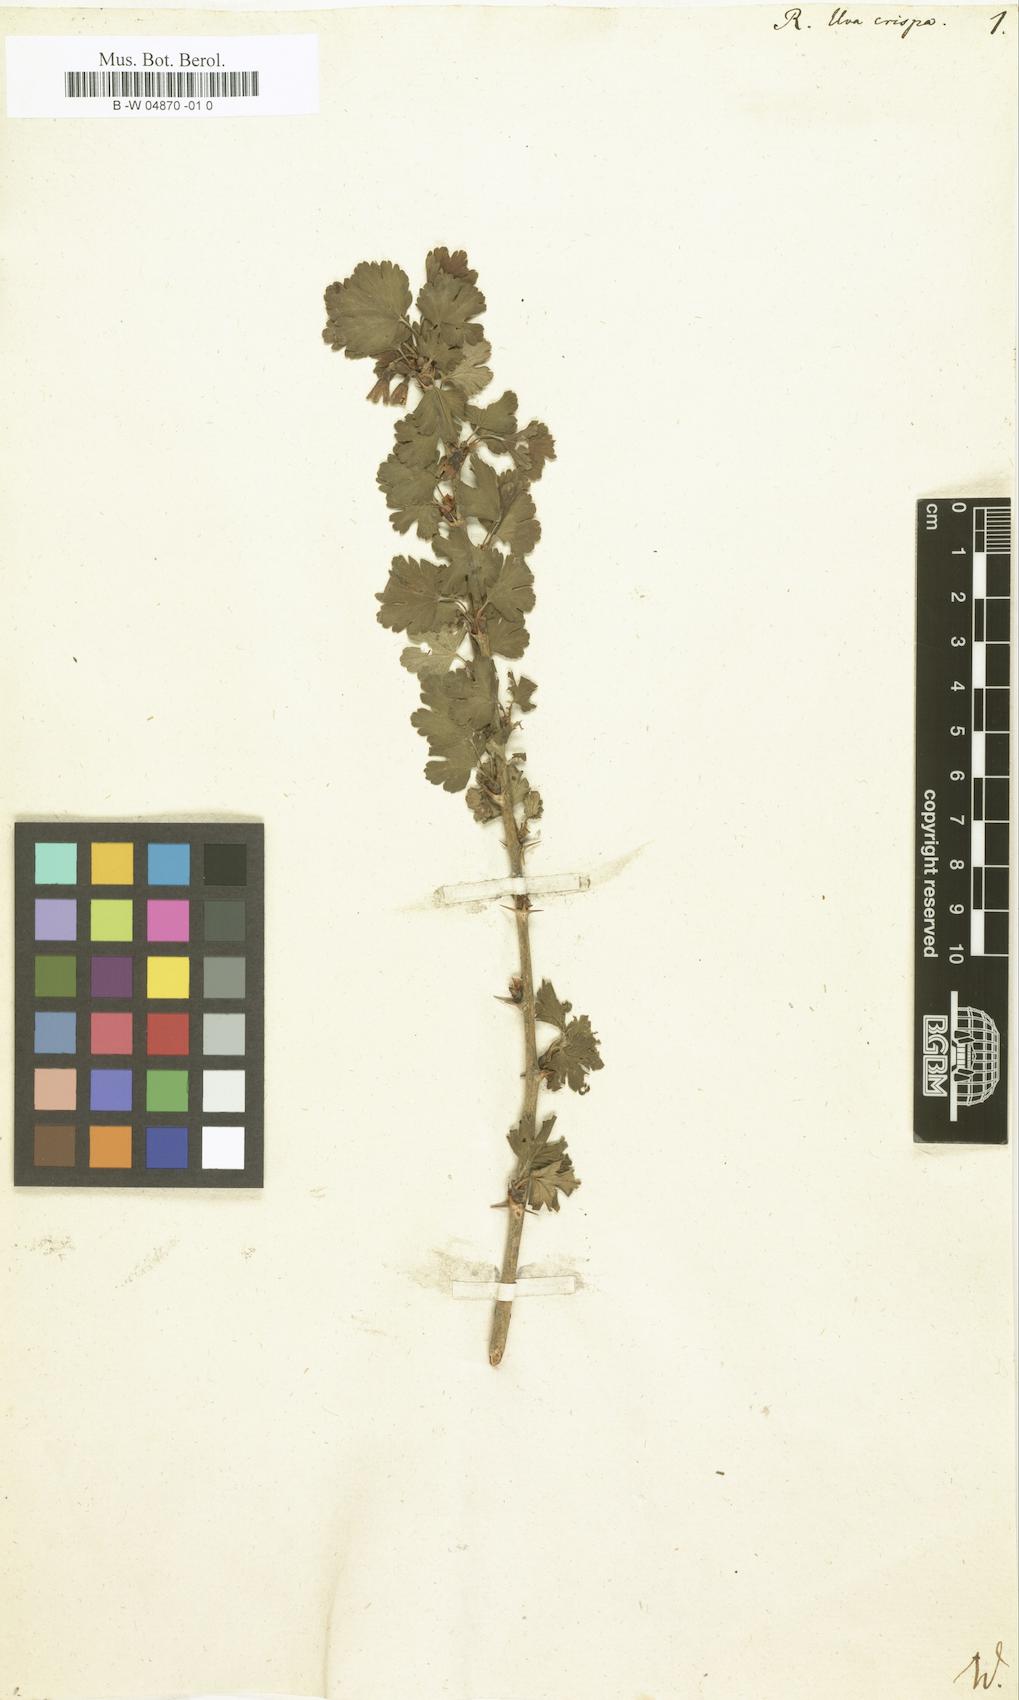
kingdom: Plantae
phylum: Tracheophyta
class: Magnoliopsida
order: Saxifragales
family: Grossulariaceae
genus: Ribes
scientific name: Ribes uva-crispa
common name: Gooseberry
